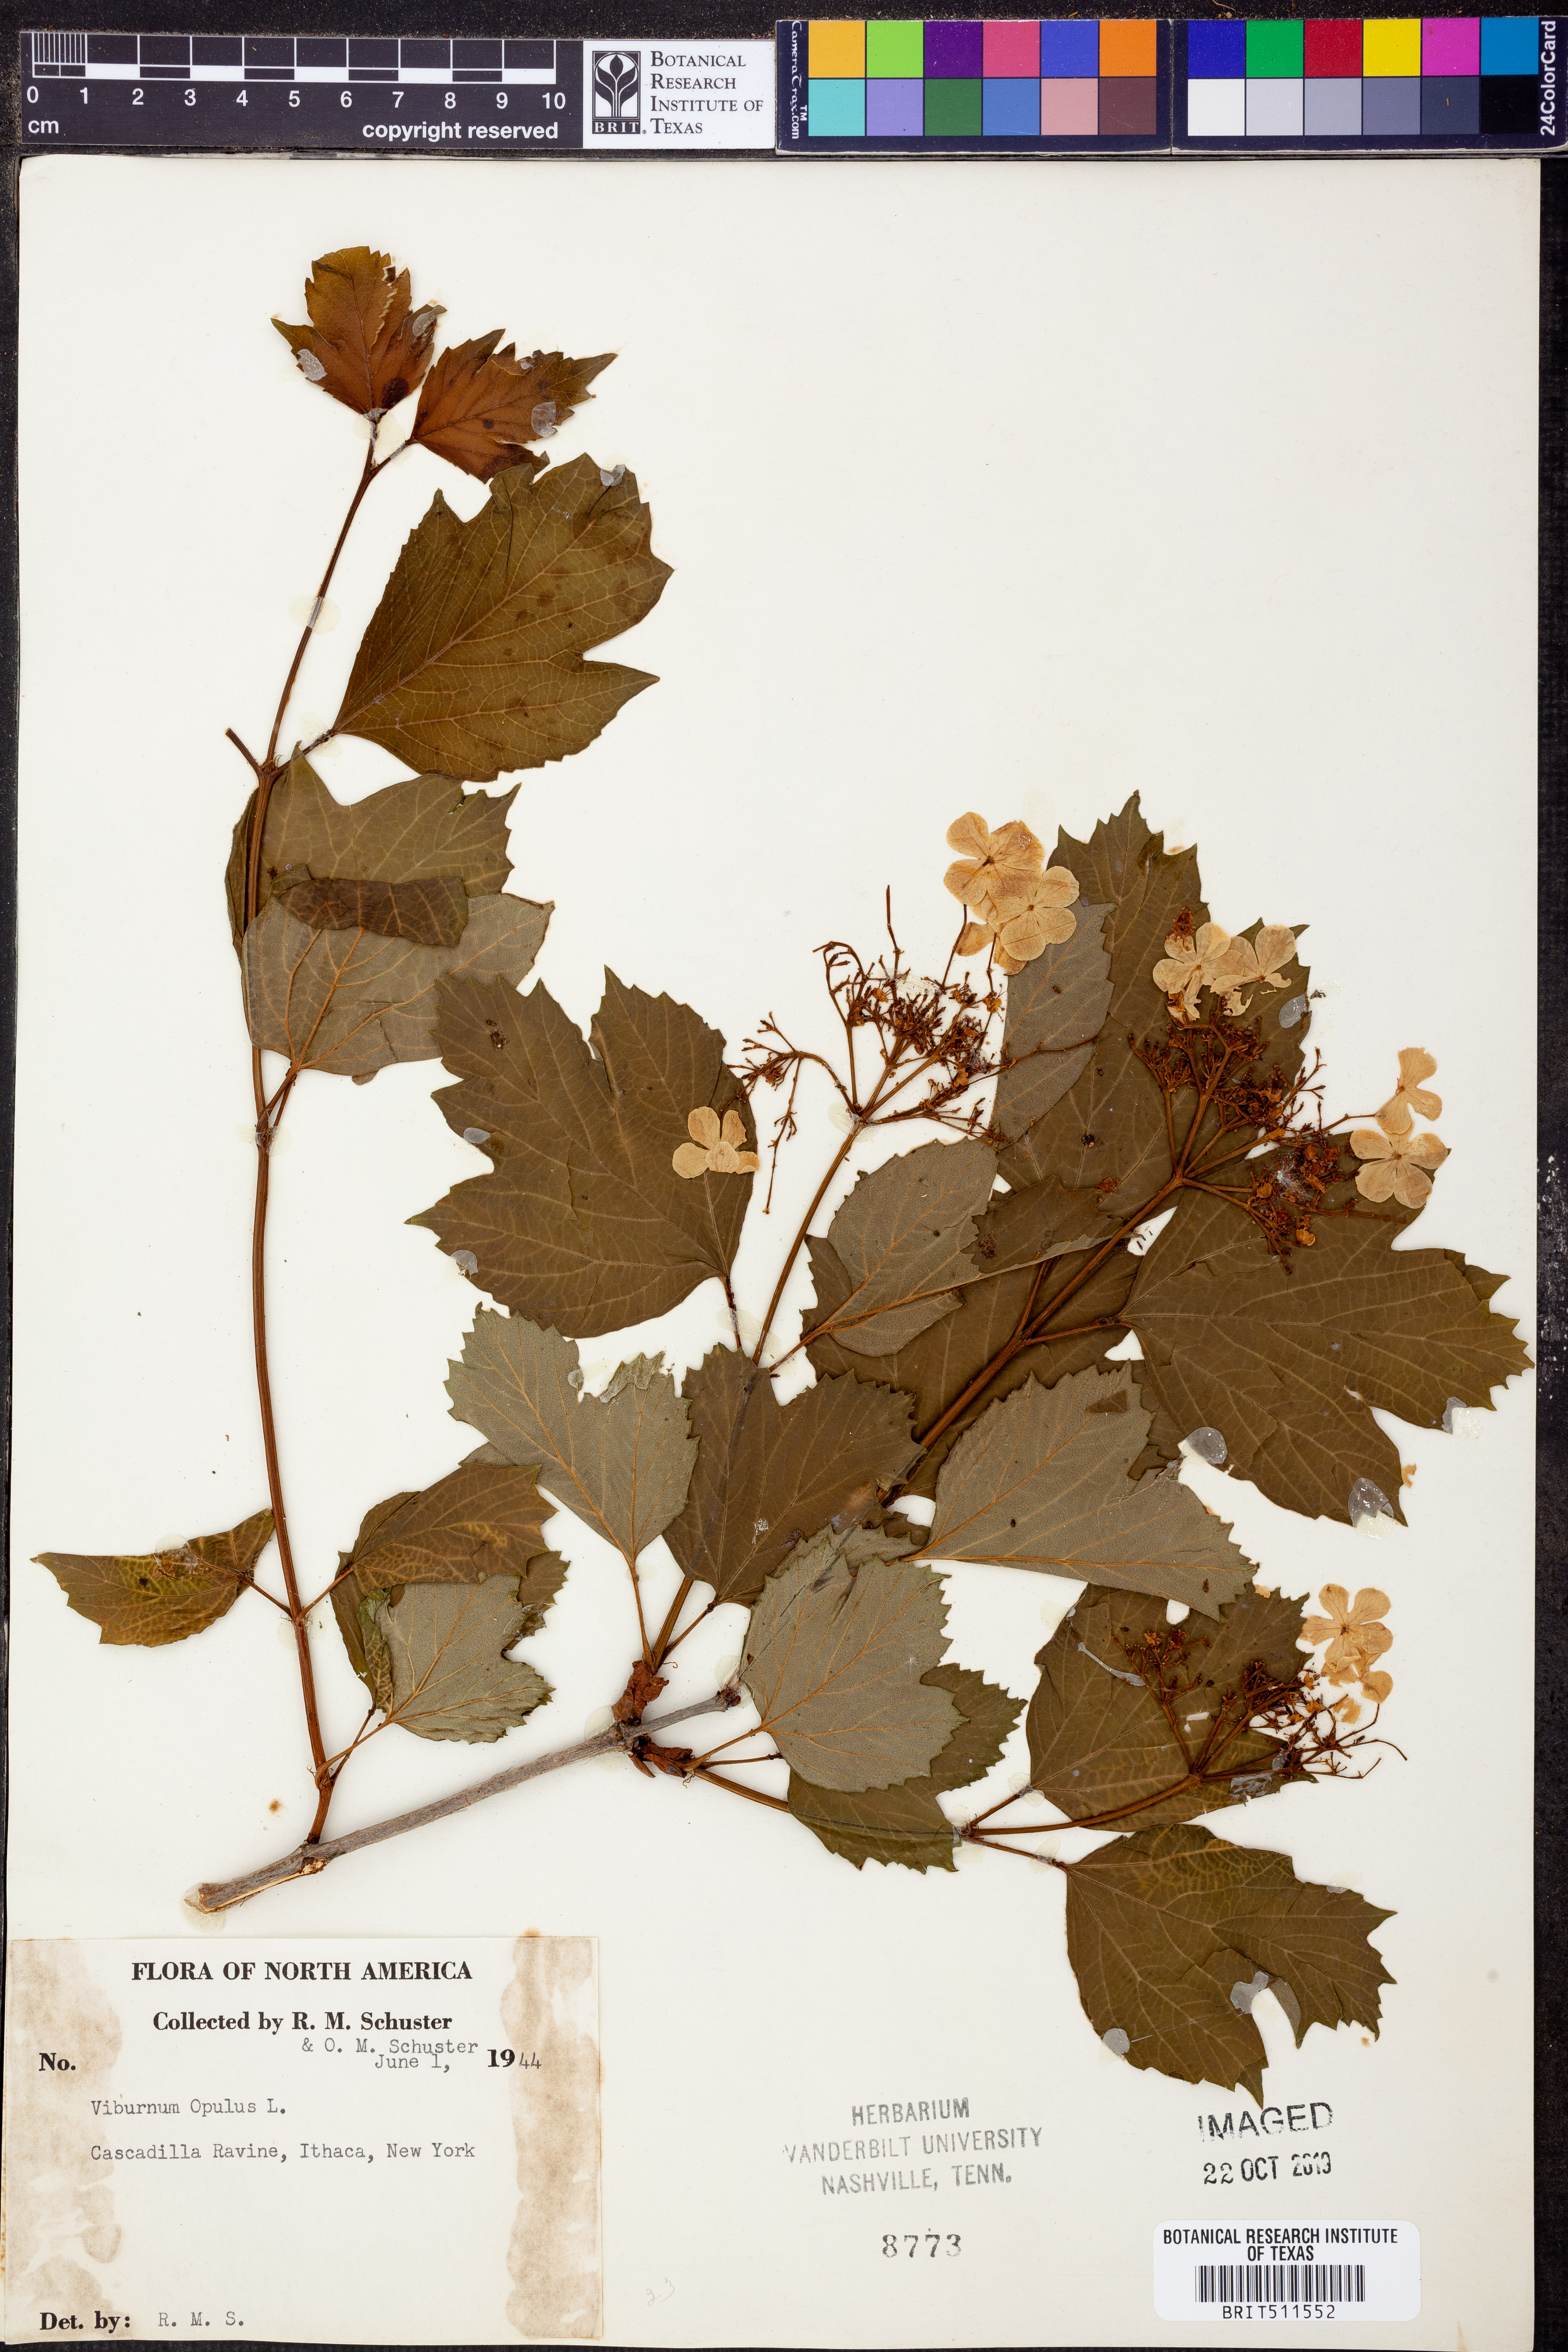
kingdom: Plantae
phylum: Tracheophyta
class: Magnoliopsida
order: Dipsacales
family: Viburnaceae
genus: Viburnum
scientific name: Viburnum opulus
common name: Guelder-rose
